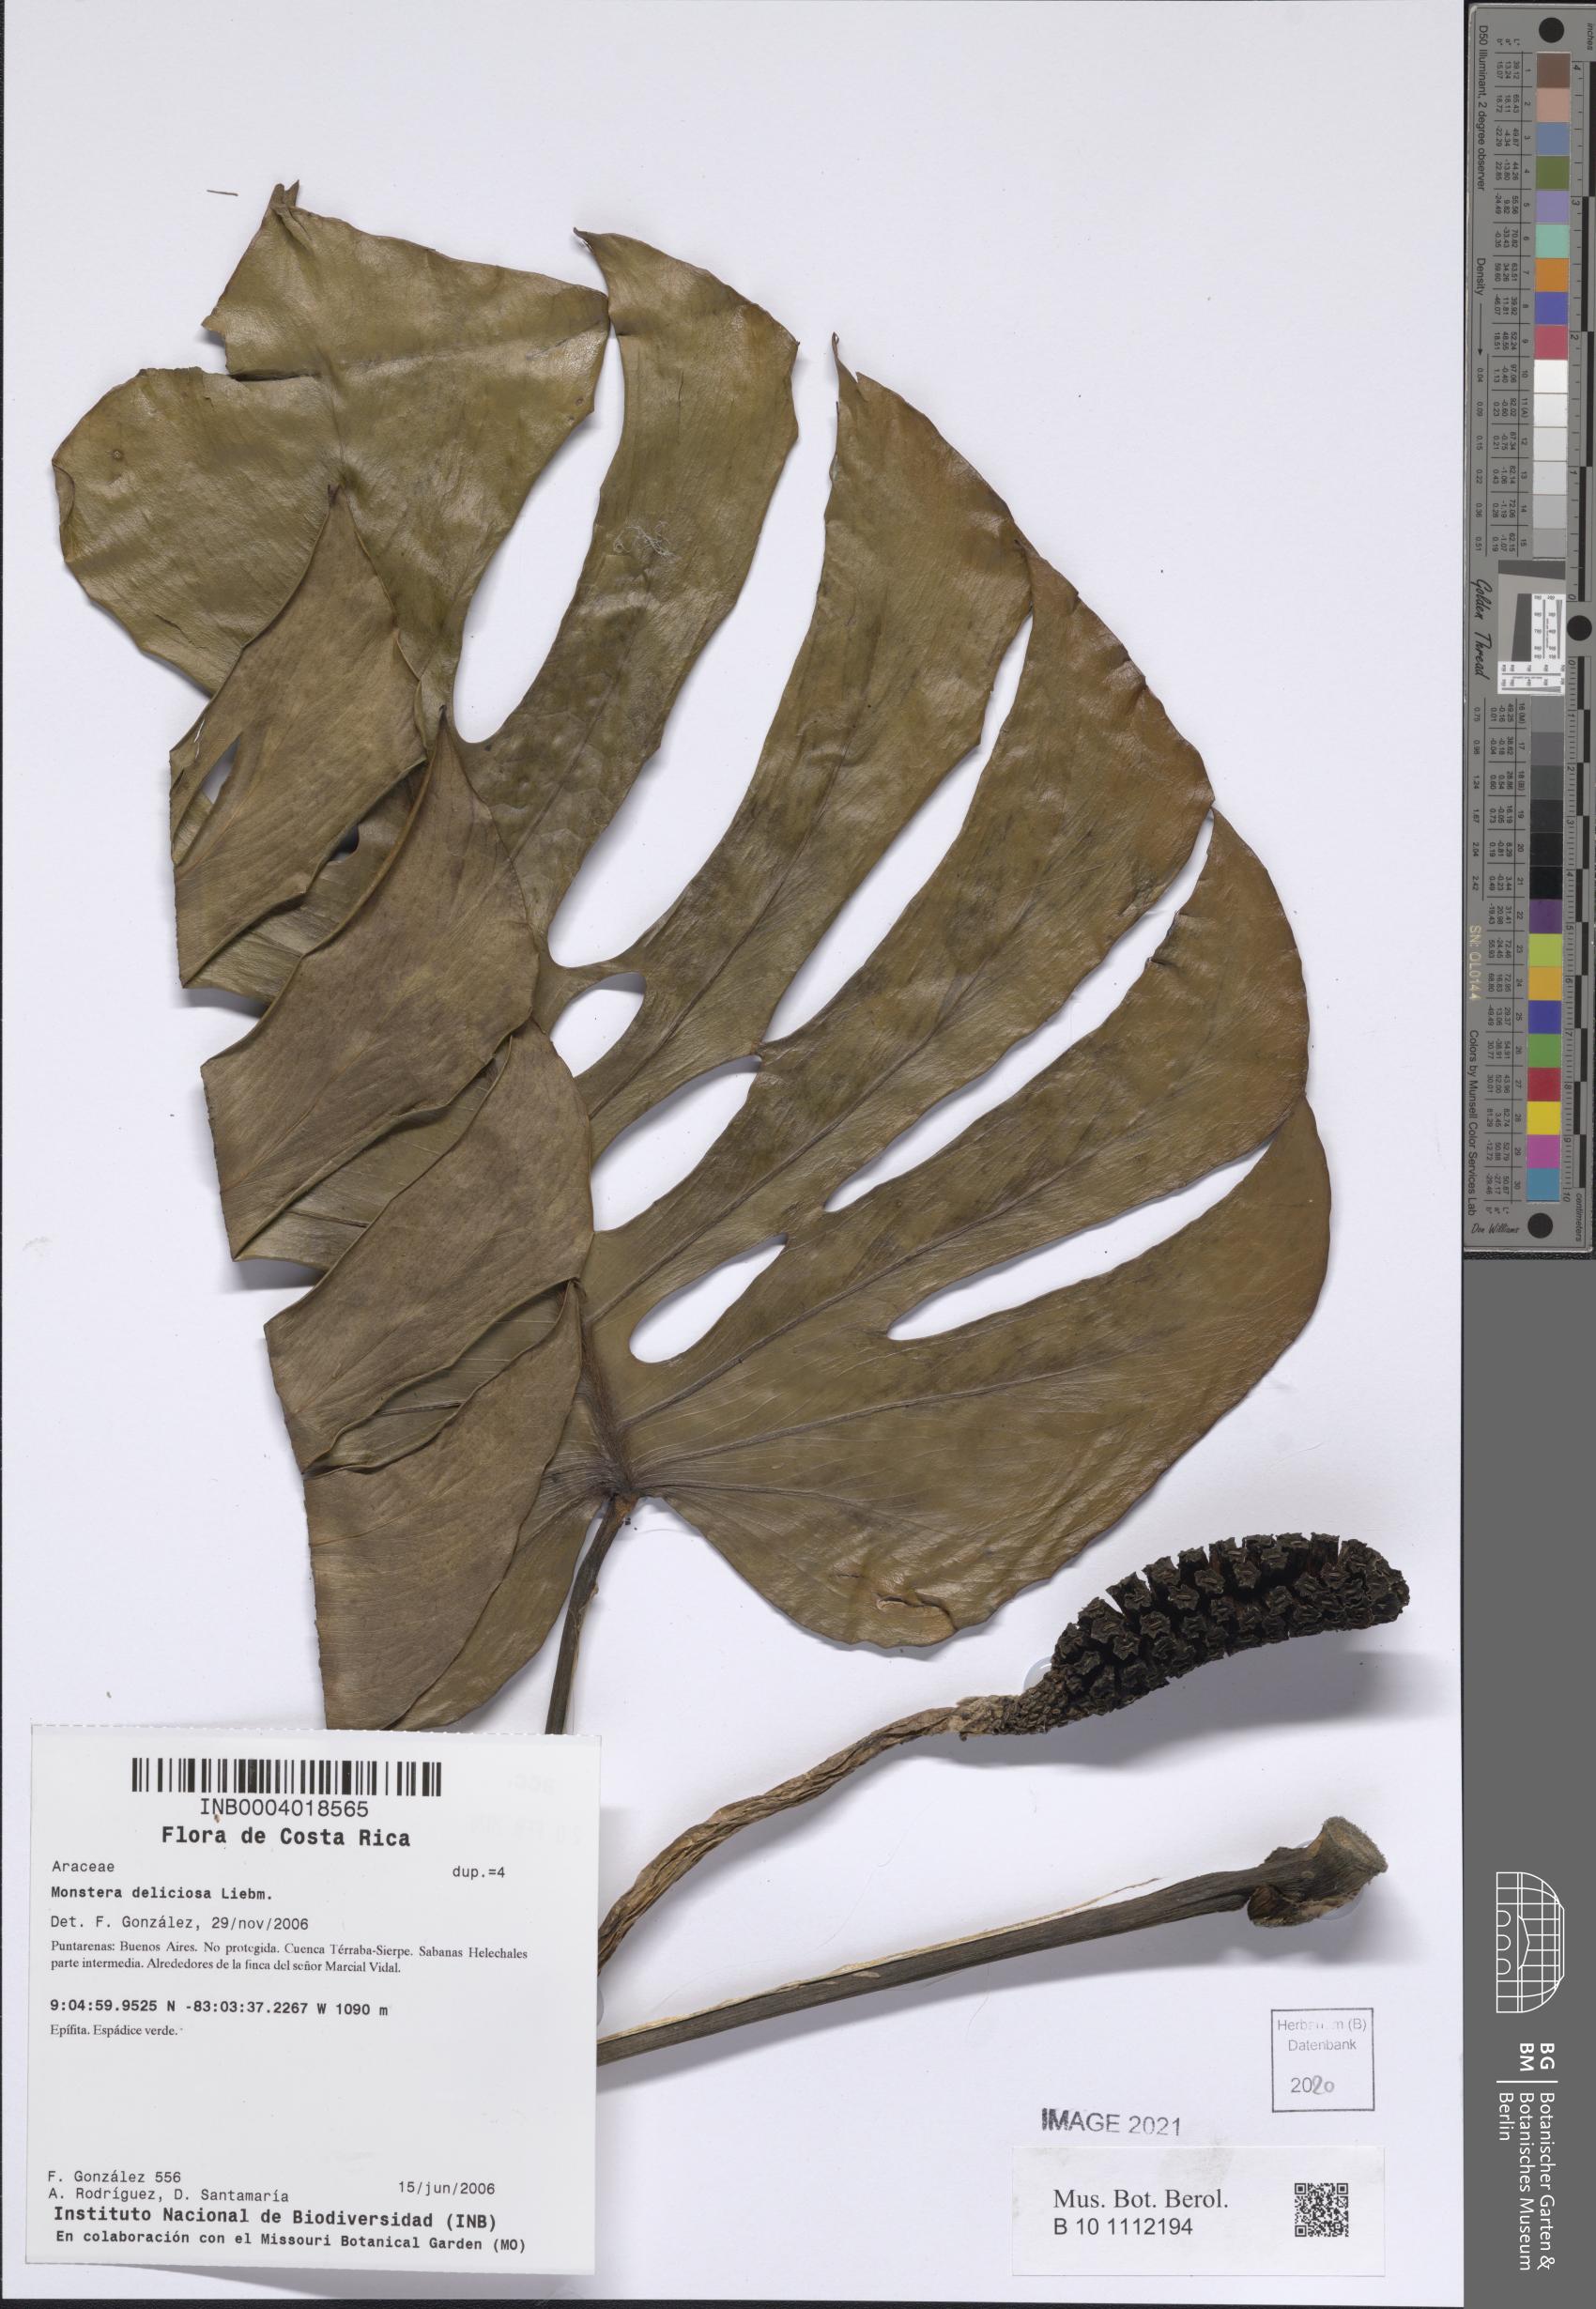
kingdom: Plantae
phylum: Tracheophyta
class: Liliopsida
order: Alismatales
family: Araceae
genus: Monstera
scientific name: Monstera deliciosa
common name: Cut-leaf-philodendron
